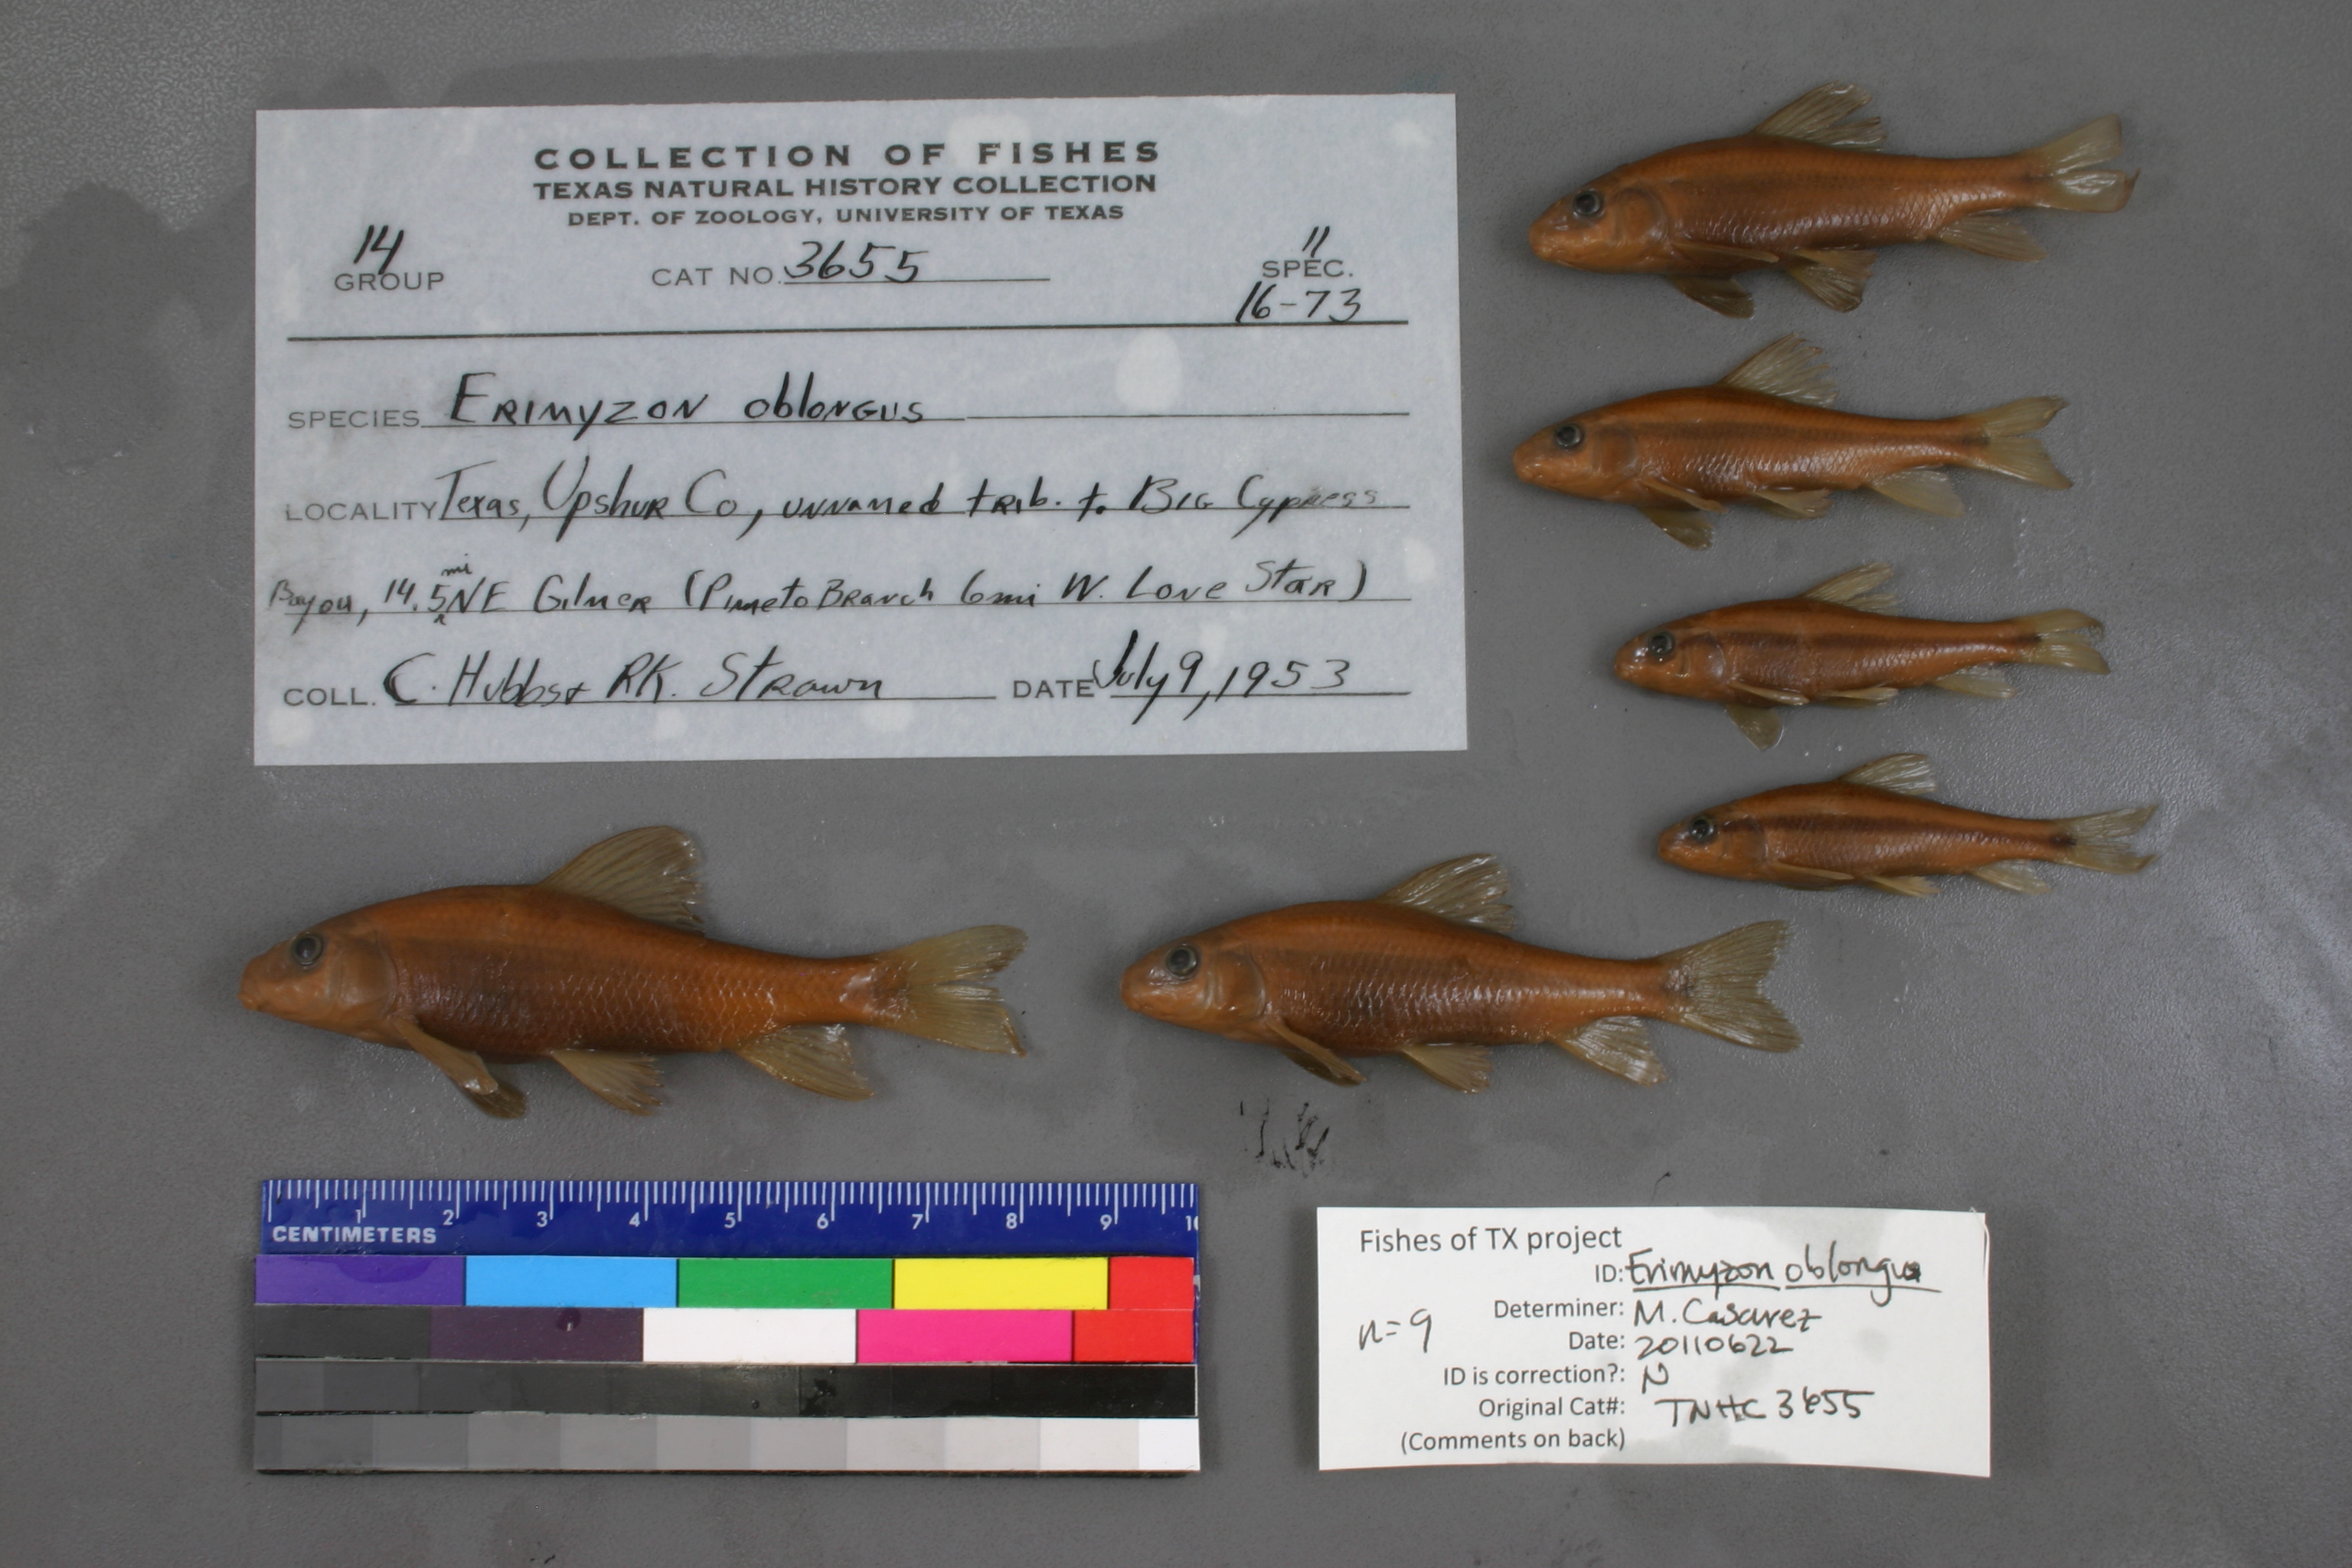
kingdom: Animalia
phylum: Chordata
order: Cypriniformes
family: Catostomidae
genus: Erimyzon
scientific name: Erimyzon oblongus
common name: Eastern creek chubsucker
